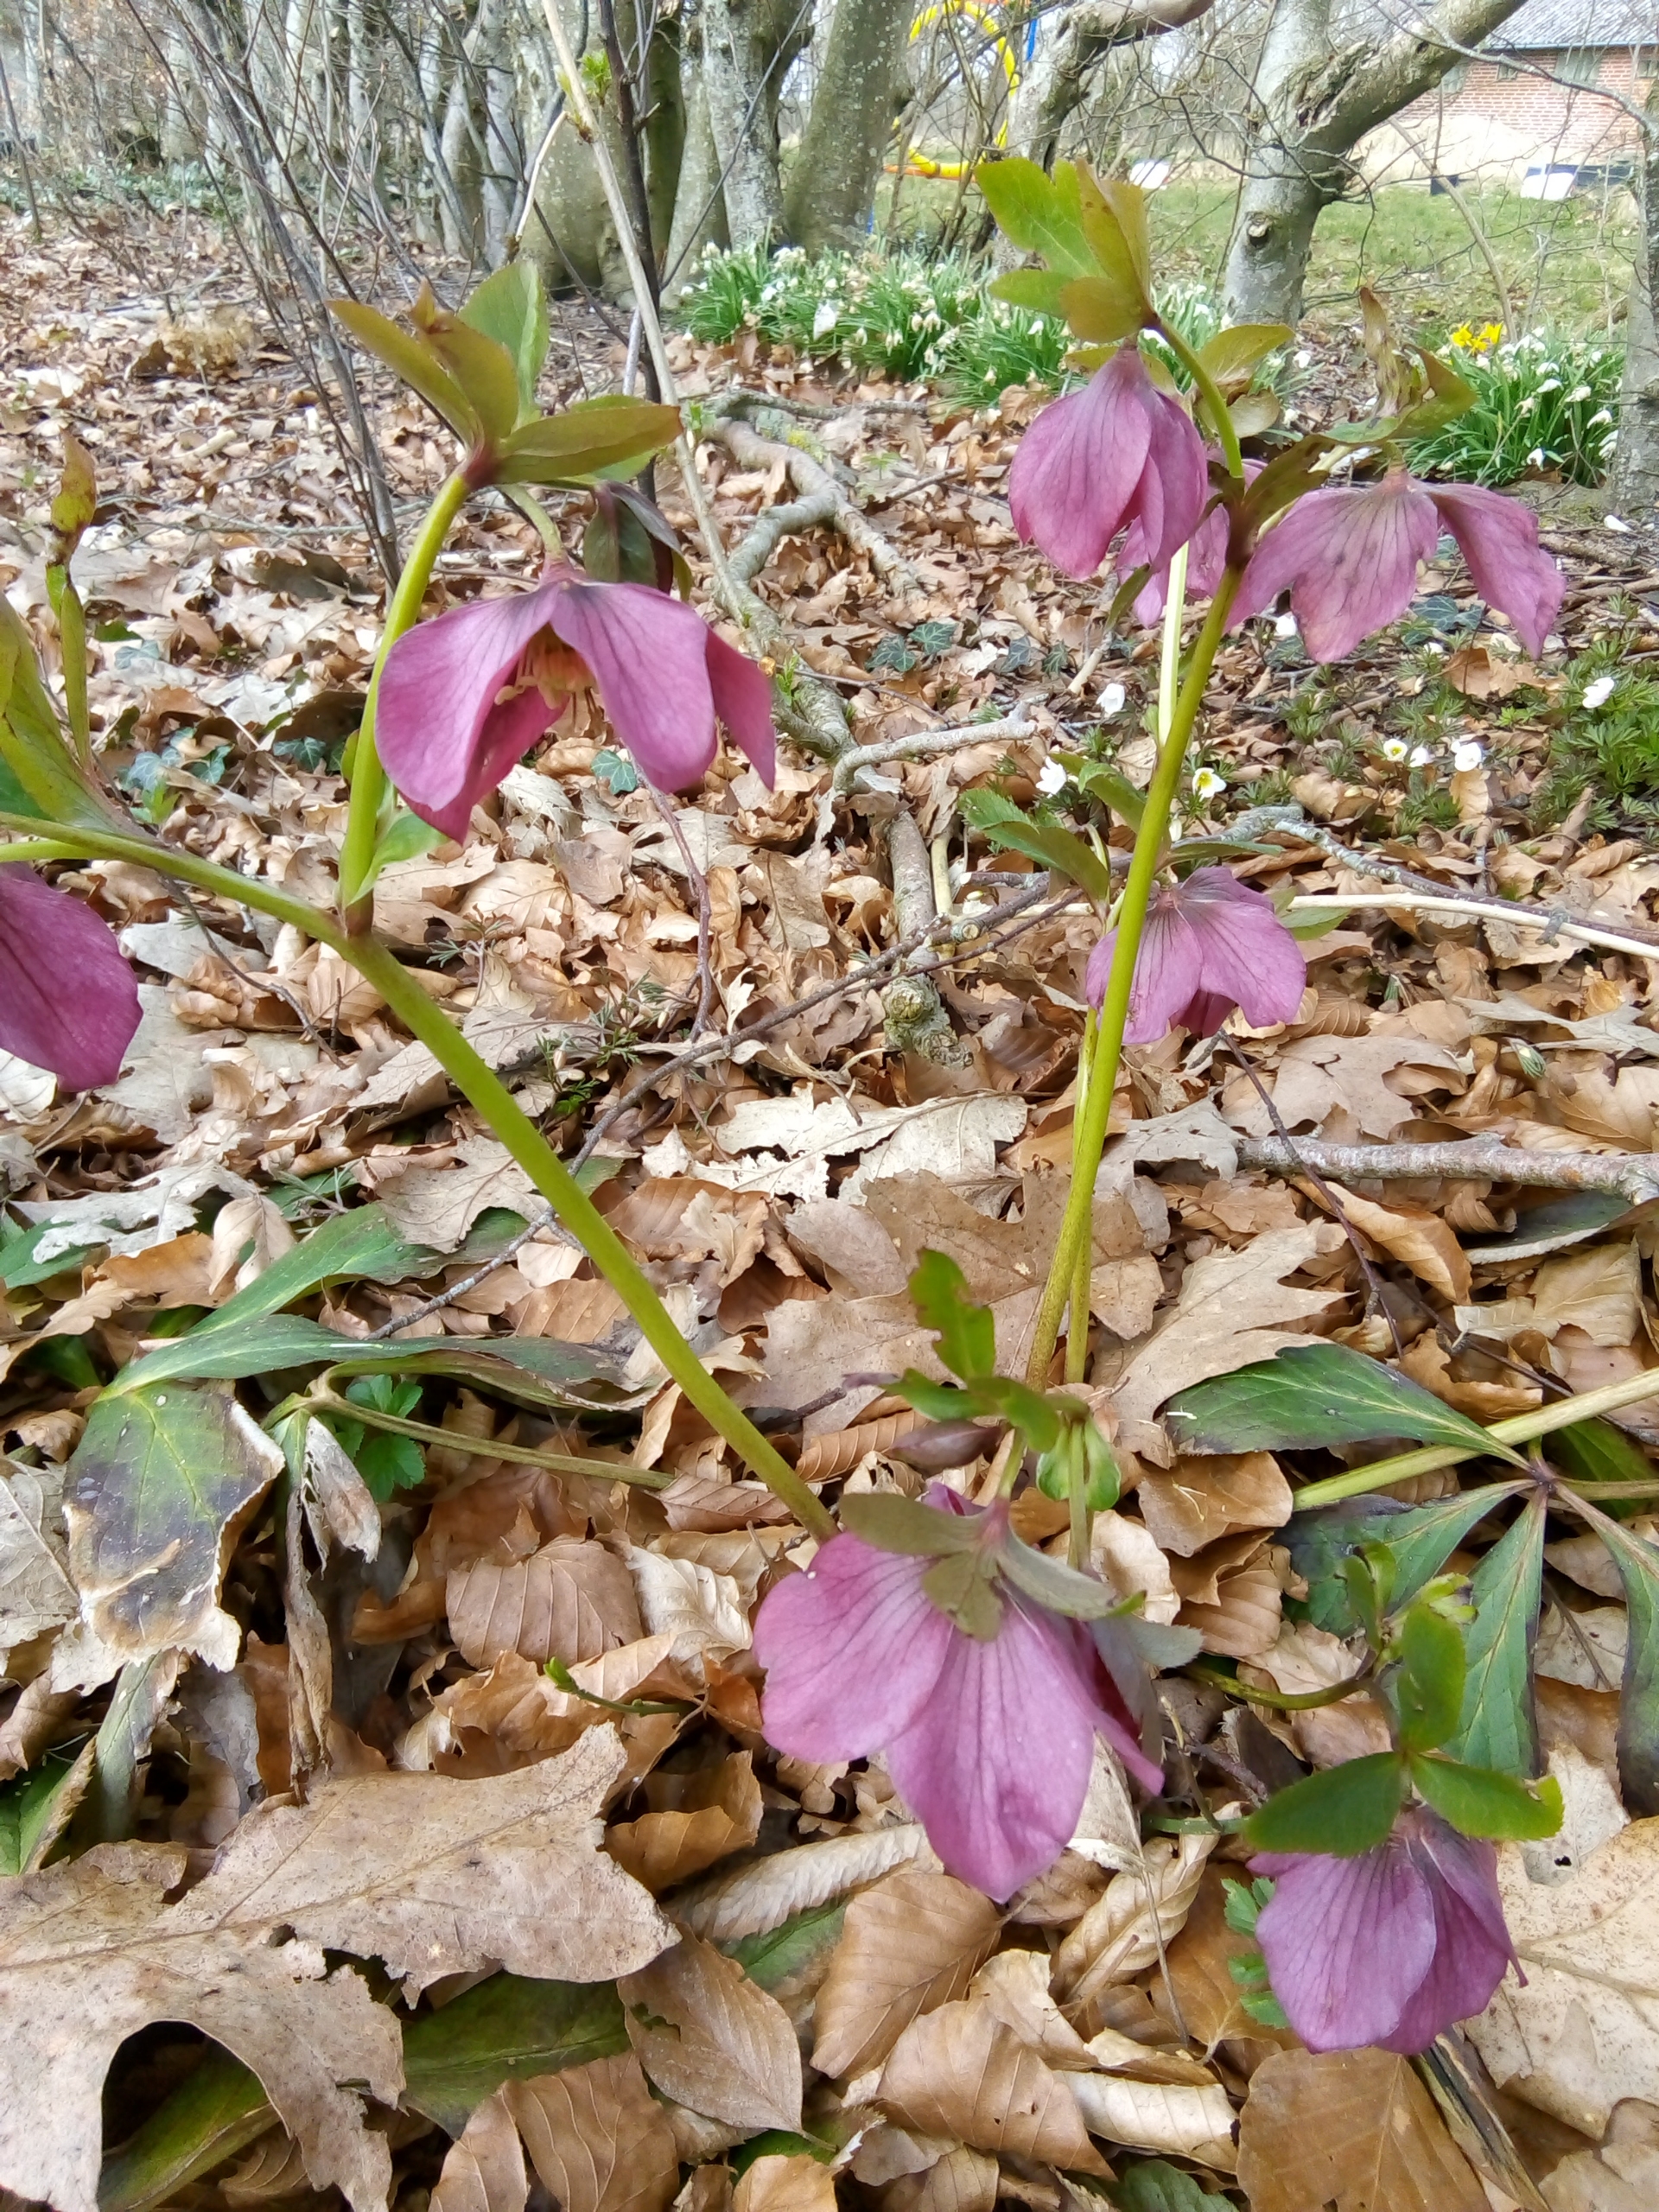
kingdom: Plantae
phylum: Tracheophyta
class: Magnoliopsida
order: Ranunculales
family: Ranunculaceae
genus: Helleborus
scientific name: Helleborus orientalis
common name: Rød julerose
